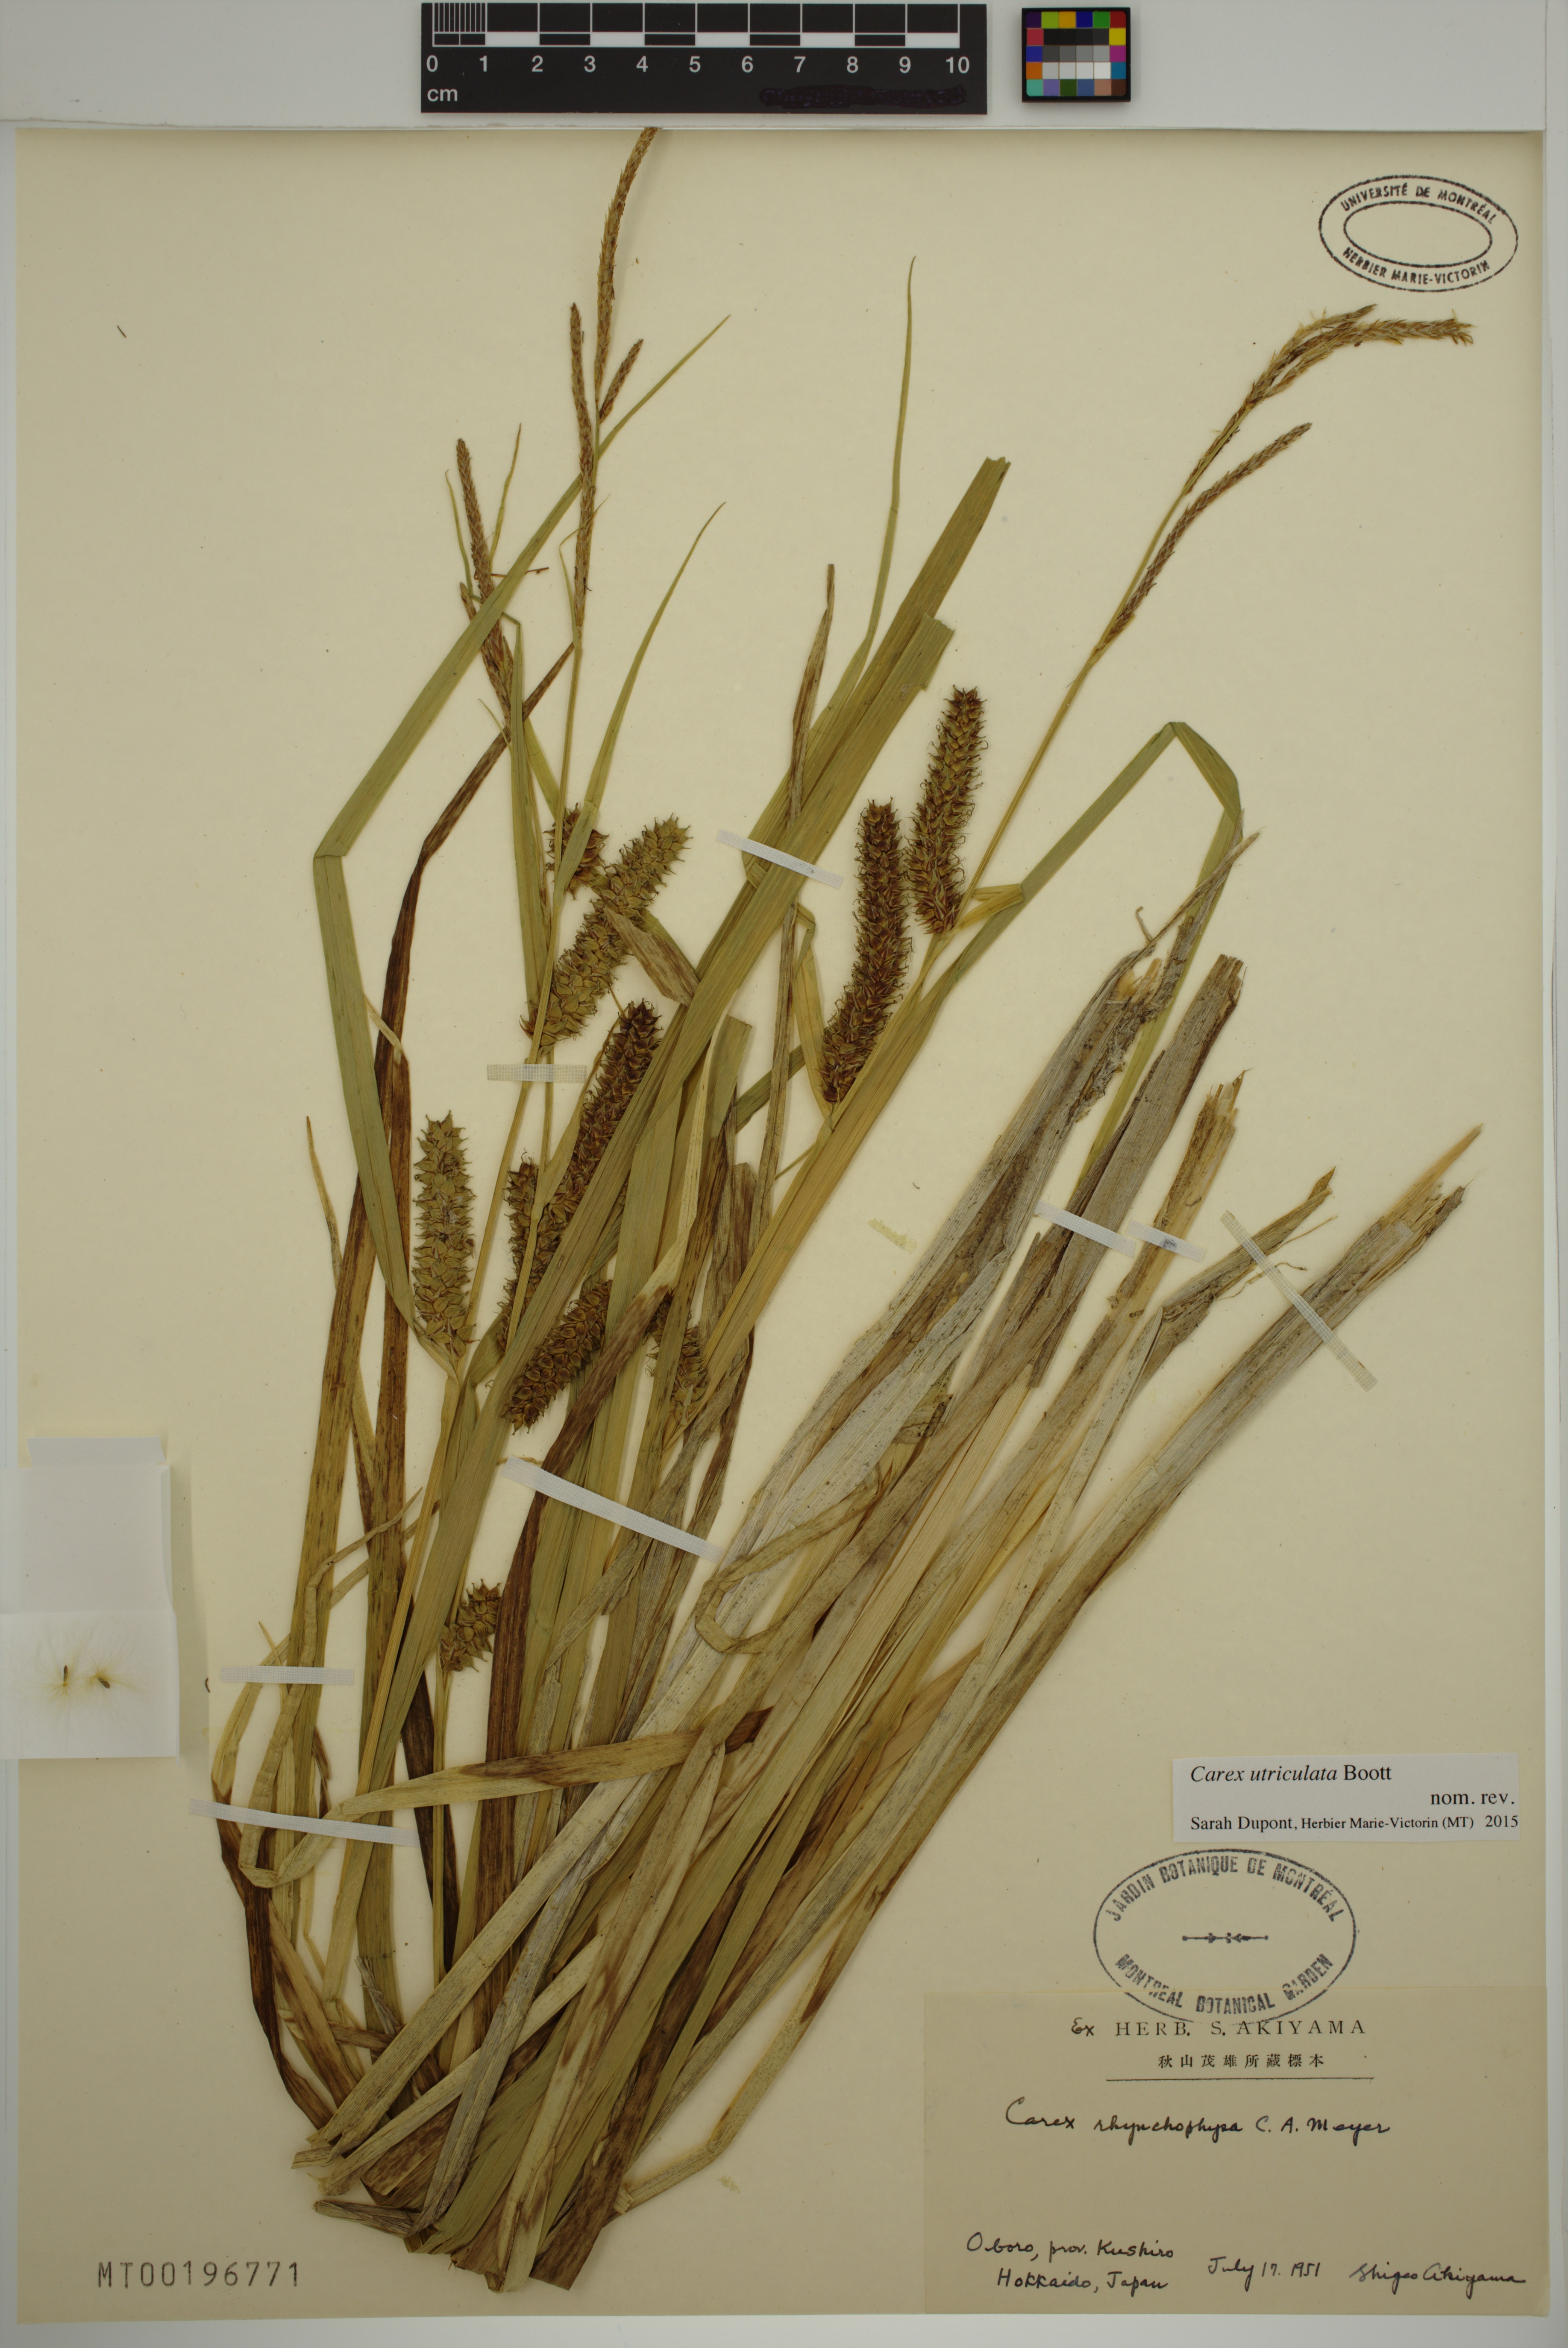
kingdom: Plantae
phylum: Tracheophyta
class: Liliopsida
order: Poales
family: Cyperaceae
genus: Carex
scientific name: Carex utriculata
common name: Beaked sedge
